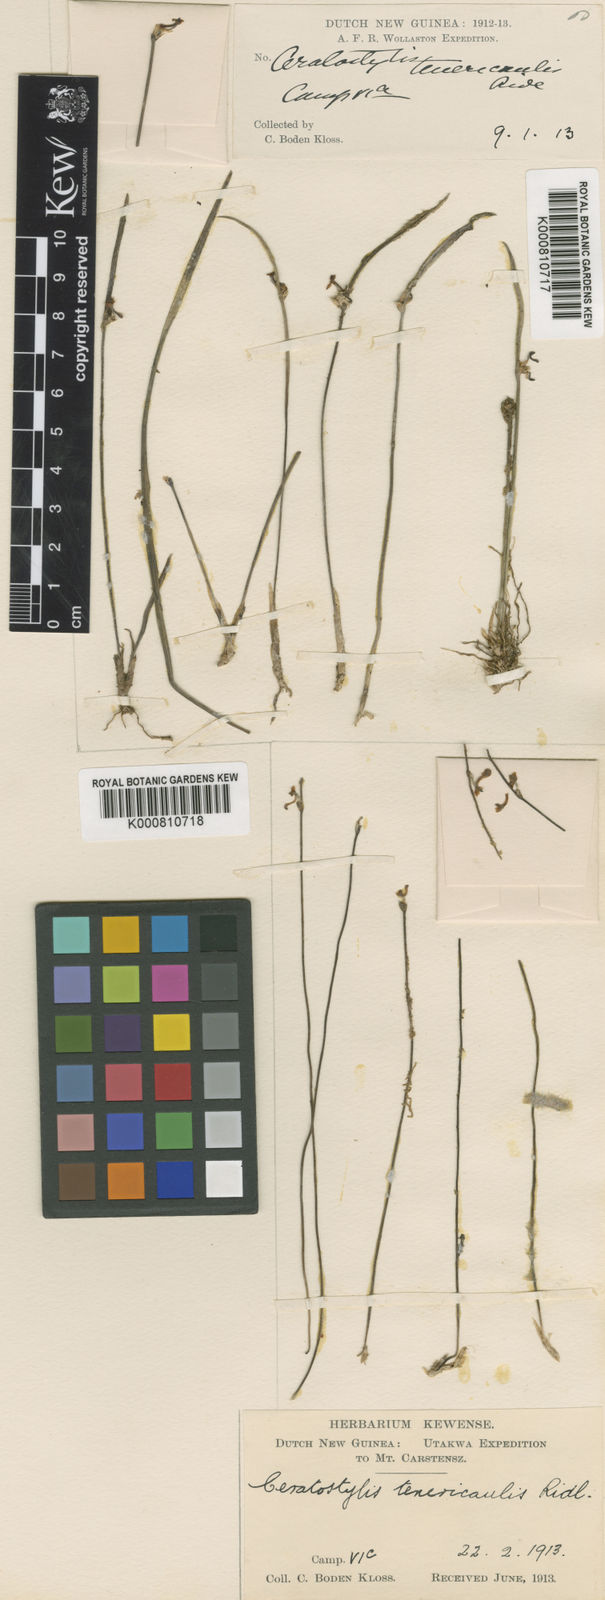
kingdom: Plantae
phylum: Tracheophyta
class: Liliopsida
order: Asparagales
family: Orchidaceae
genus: Ceratostylis
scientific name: Ceratostylis tenericaulis
